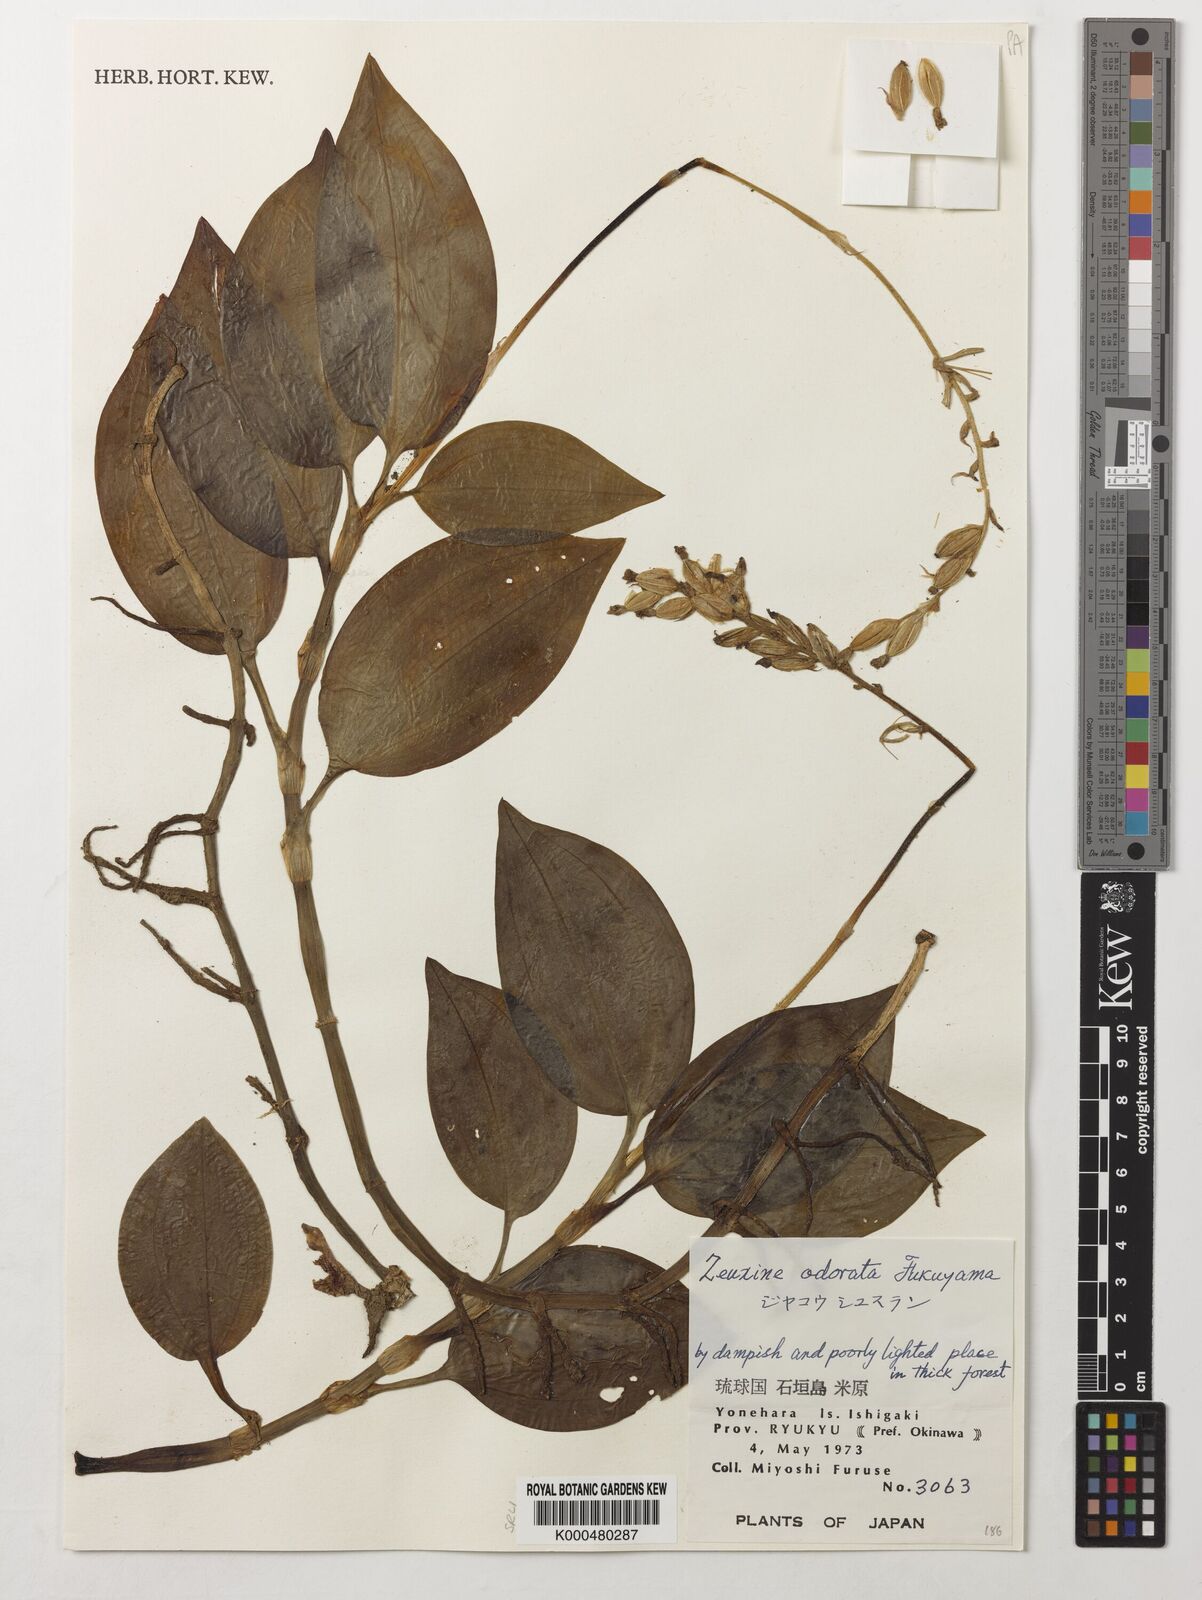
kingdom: Plantae
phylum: Tracheophyta
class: Liliopsida
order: Asparagales
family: Orchidaceae
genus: Zeuxine
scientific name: Zeuxine odorata
